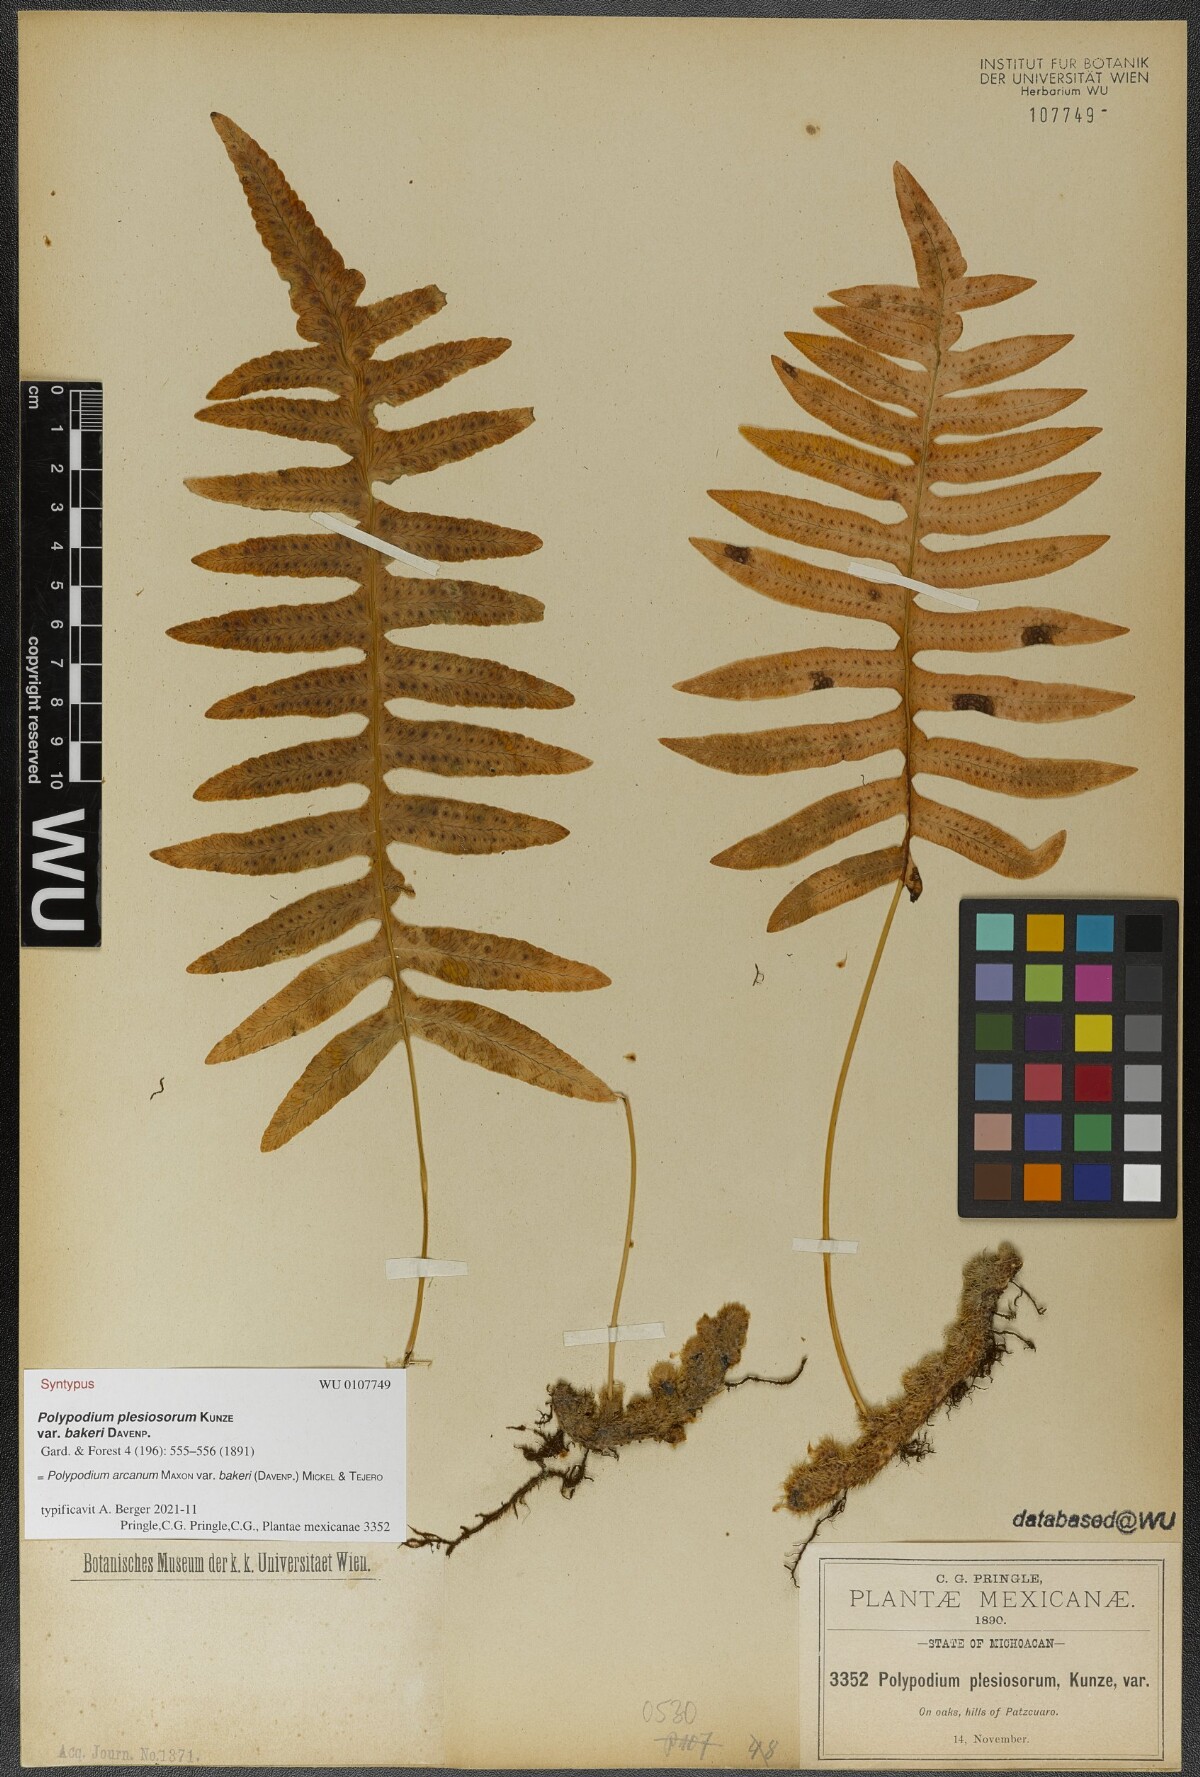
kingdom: Plantae
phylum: Tracheophyta
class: Polypodiopsida
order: Polypodiales
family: Polypodiaceae
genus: Polypodium
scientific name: Polypodium arcanum
